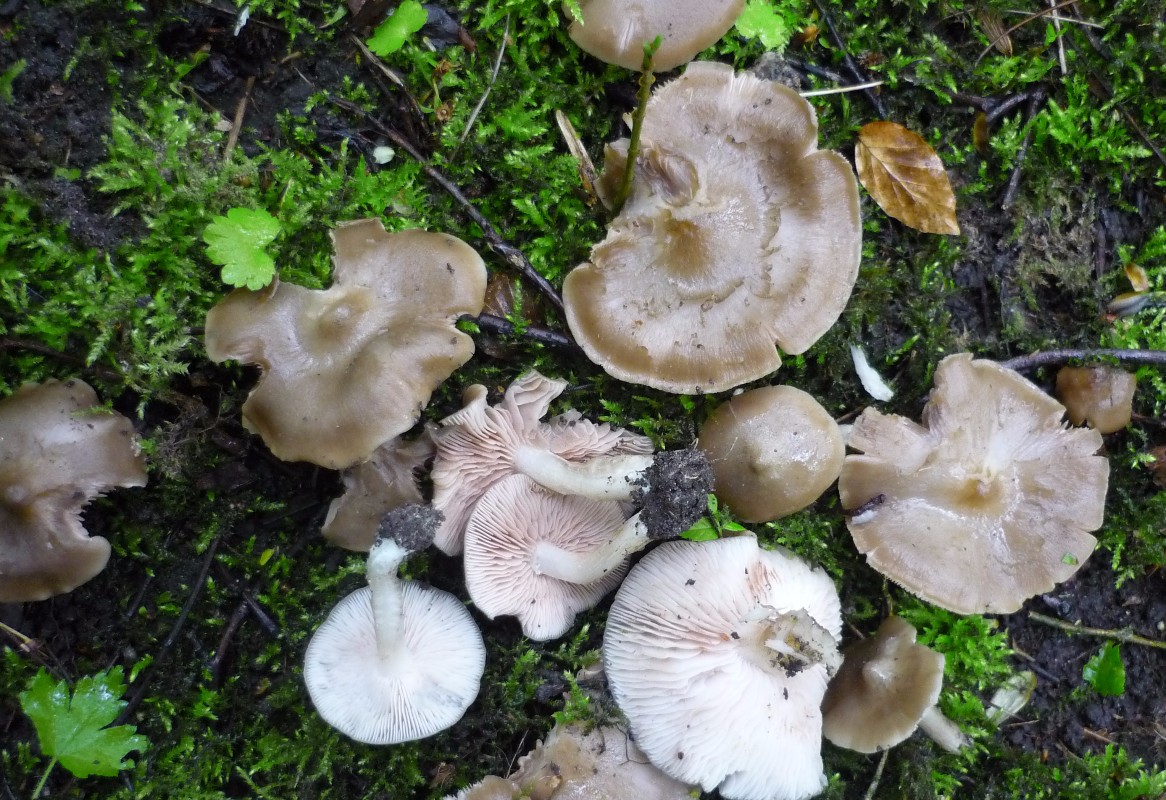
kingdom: Fungi
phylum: Basidiomycota
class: Agaricomycetes
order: Agaricales
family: Entolomataceae
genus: Entoloma
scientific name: Entoloma clypeatum
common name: flammet rødblad
